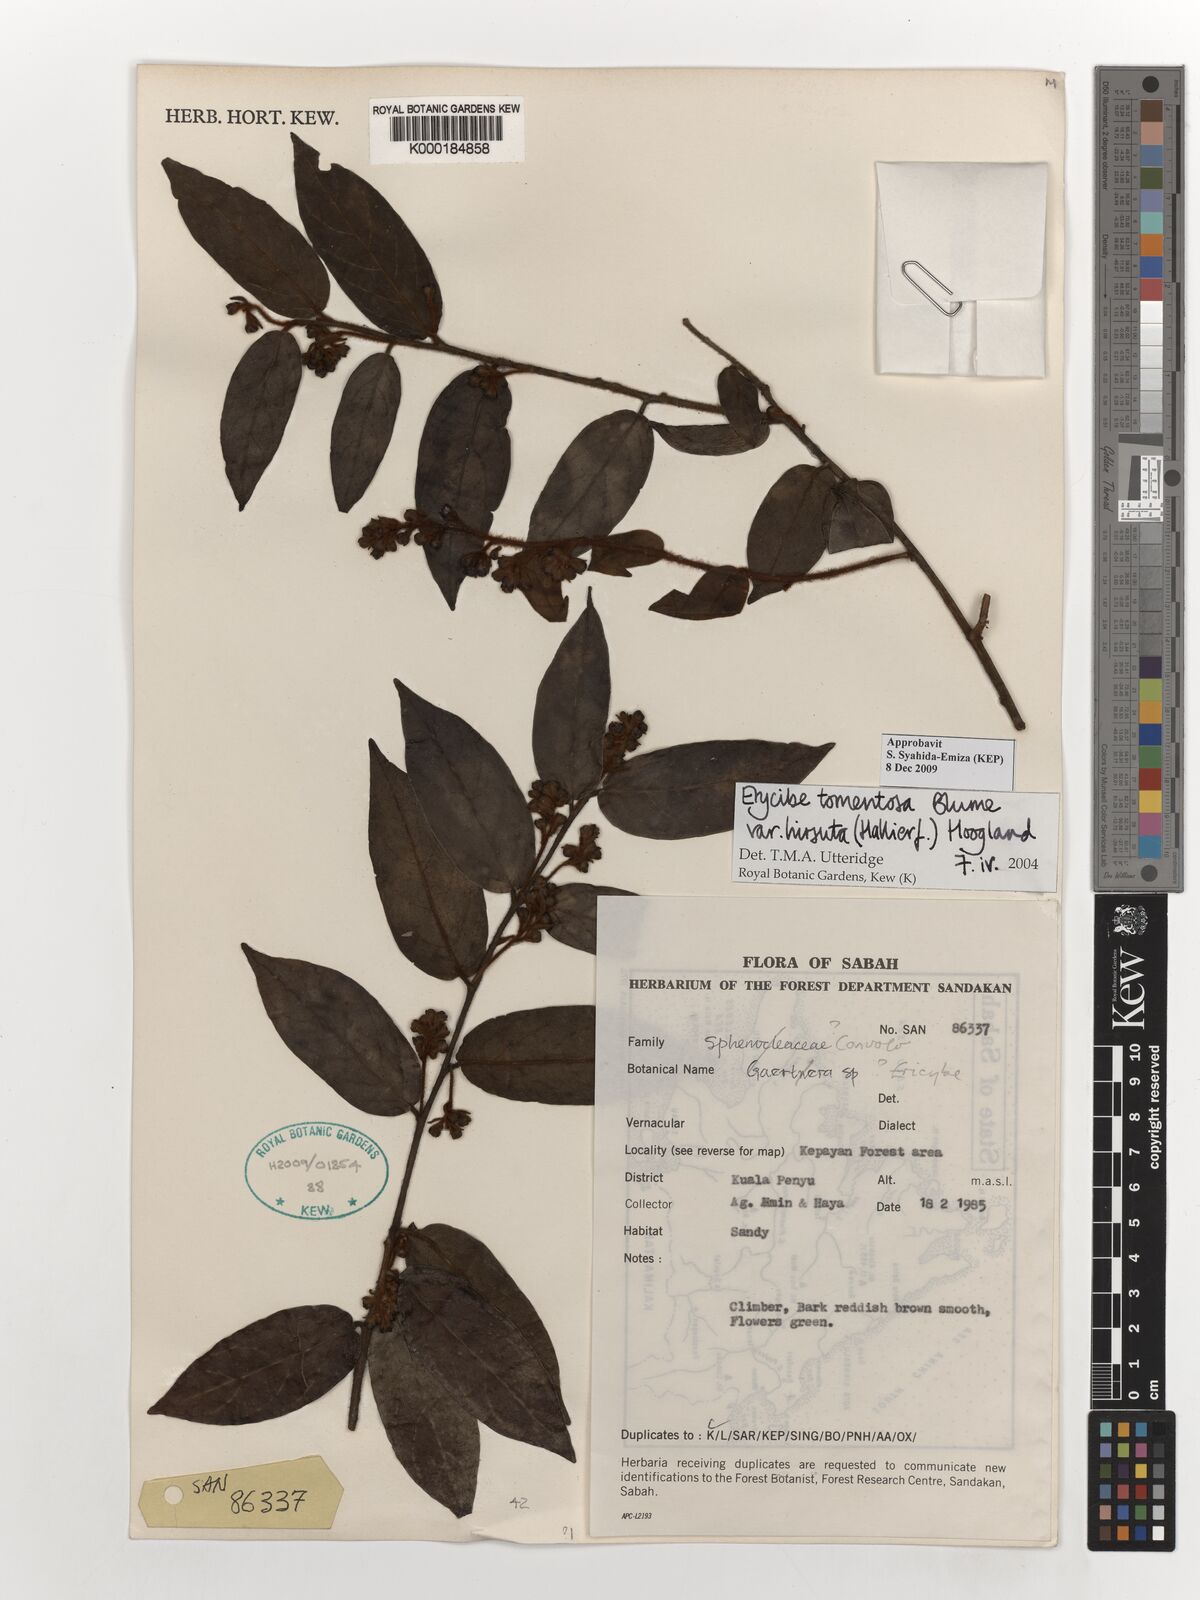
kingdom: Plantae
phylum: Tracheophyta
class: Magnoliopsida
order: Solanales
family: Convolvulaceae
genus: Erycibe
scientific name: Erycibe tomentosa
